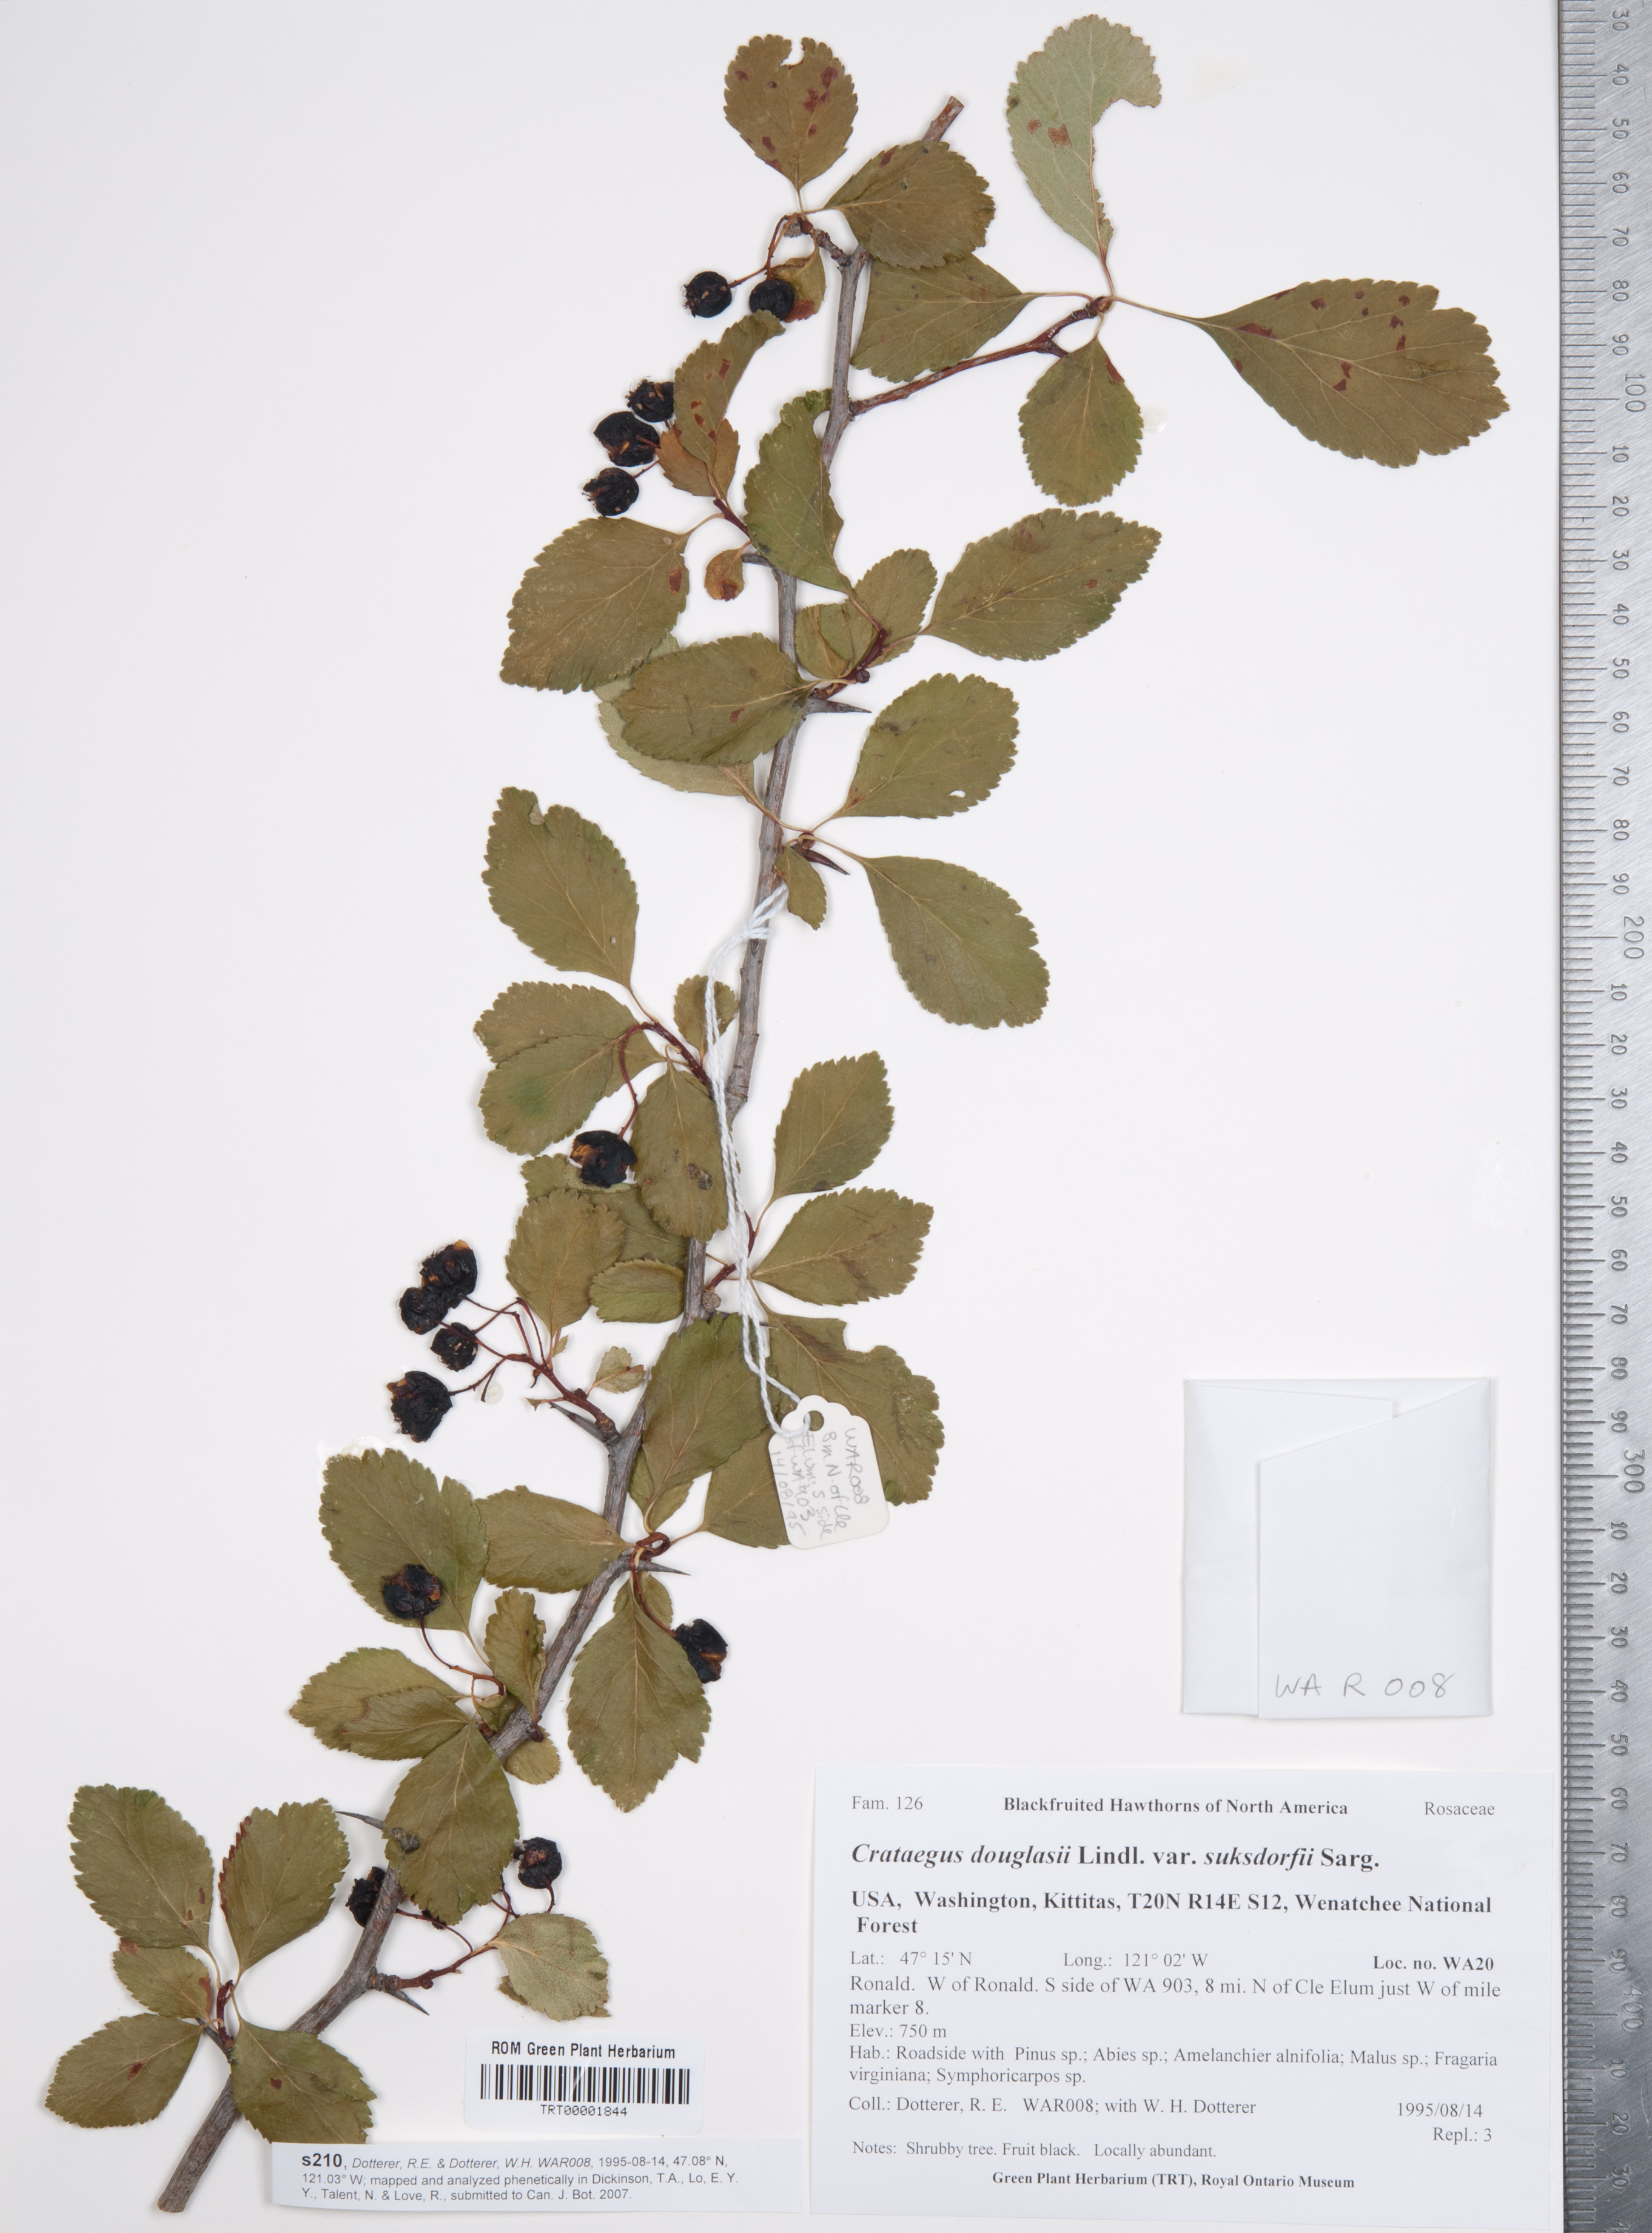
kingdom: Plantae
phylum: Tracheophyta
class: Magnoliopsida
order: Rosales
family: Rosaceae
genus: Crataegus
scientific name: Crataegus gaylussacia
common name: Huckleberry hawthorn
